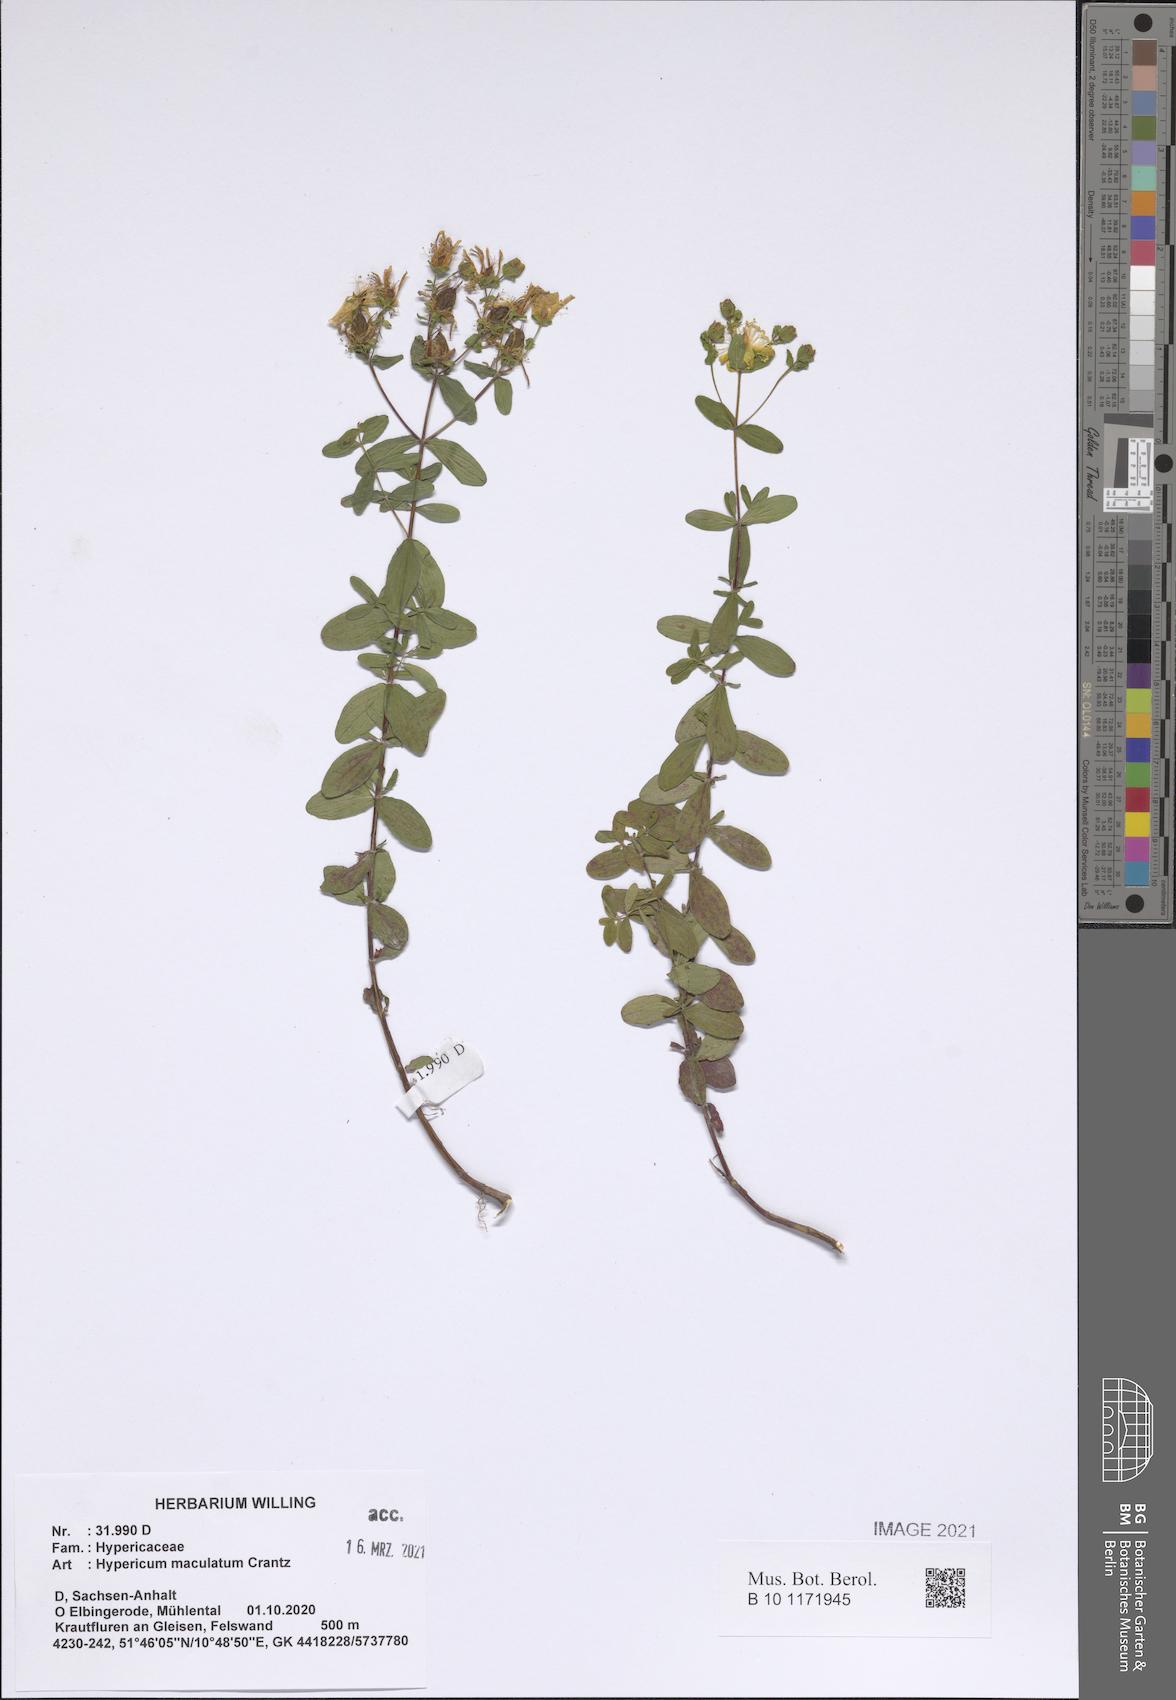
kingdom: Plantae
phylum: Tracheophyta
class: Magnoliopsida
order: Malpighiales
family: Hypericaceae
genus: Hypericum
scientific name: Hypericum maculatum
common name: Imperforate st. john's-wort
